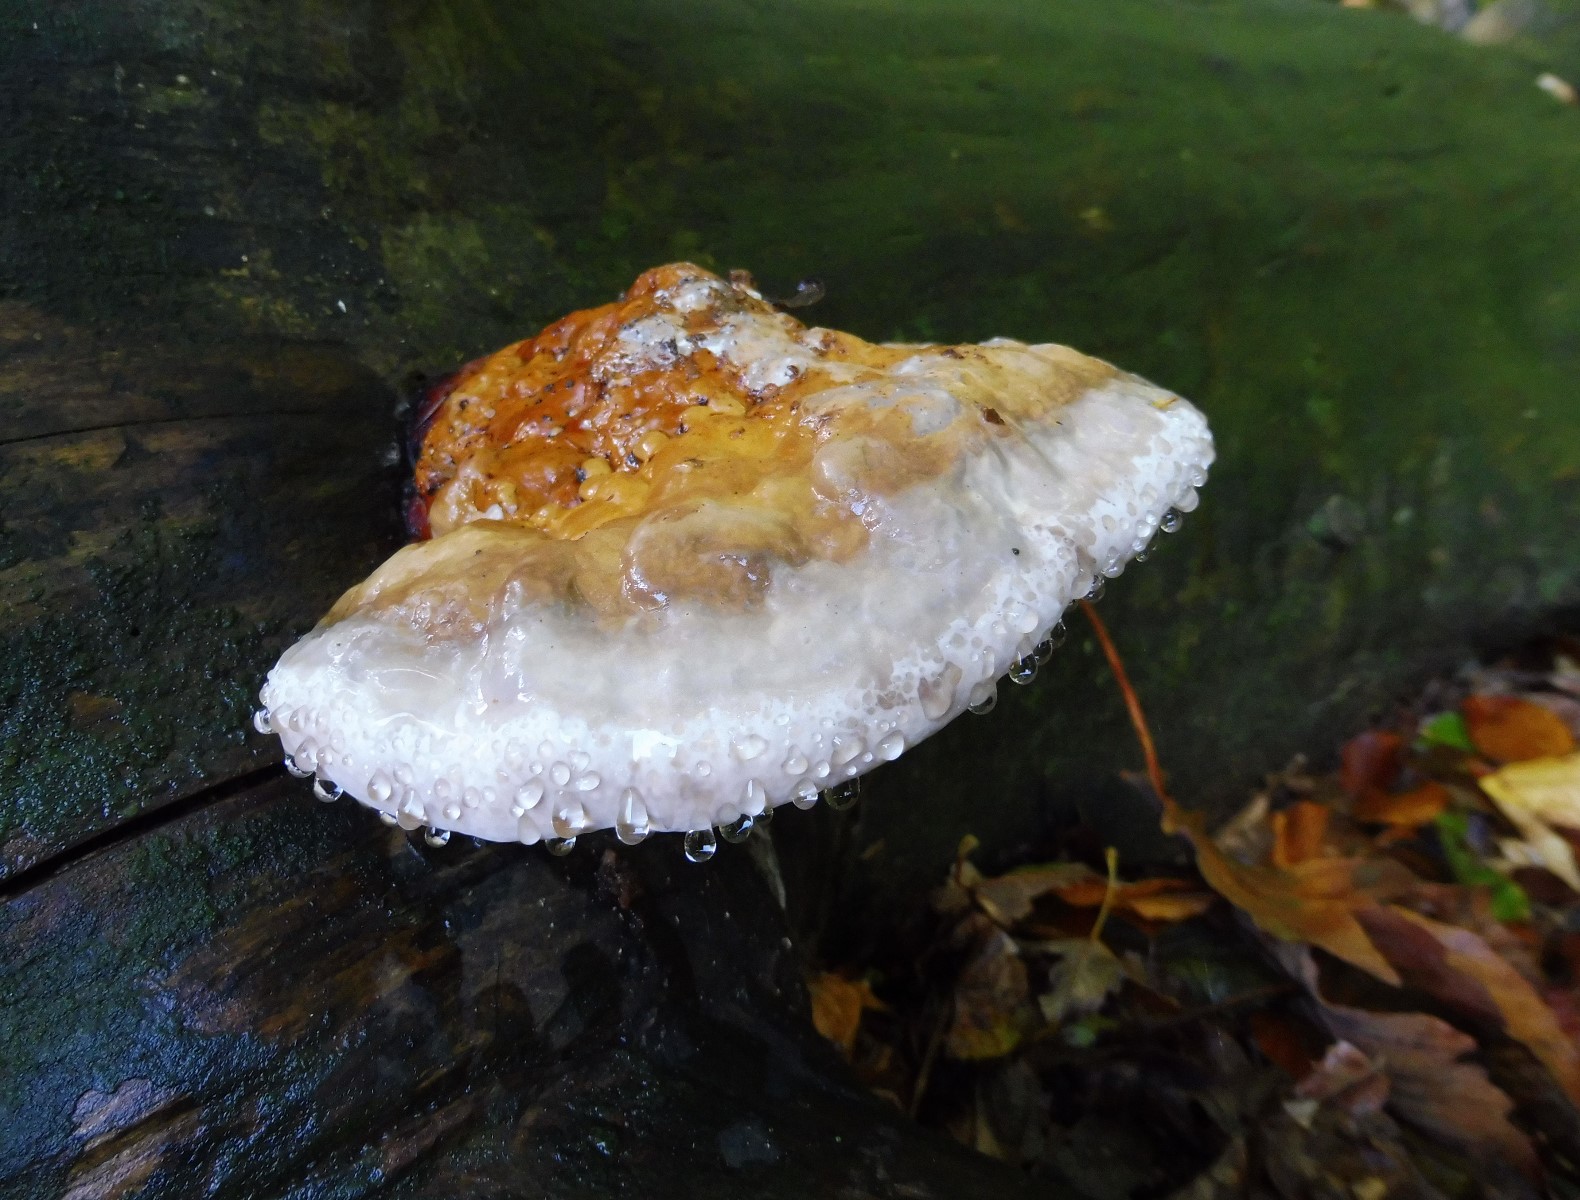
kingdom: Fungi
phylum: Basidiomycota
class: Agaricomycetes
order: Polyporales
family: Fomitopsidaceae
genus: Fomitopsis
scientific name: Fomitopsis pinicola
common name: randbæltet hovporesvamp
